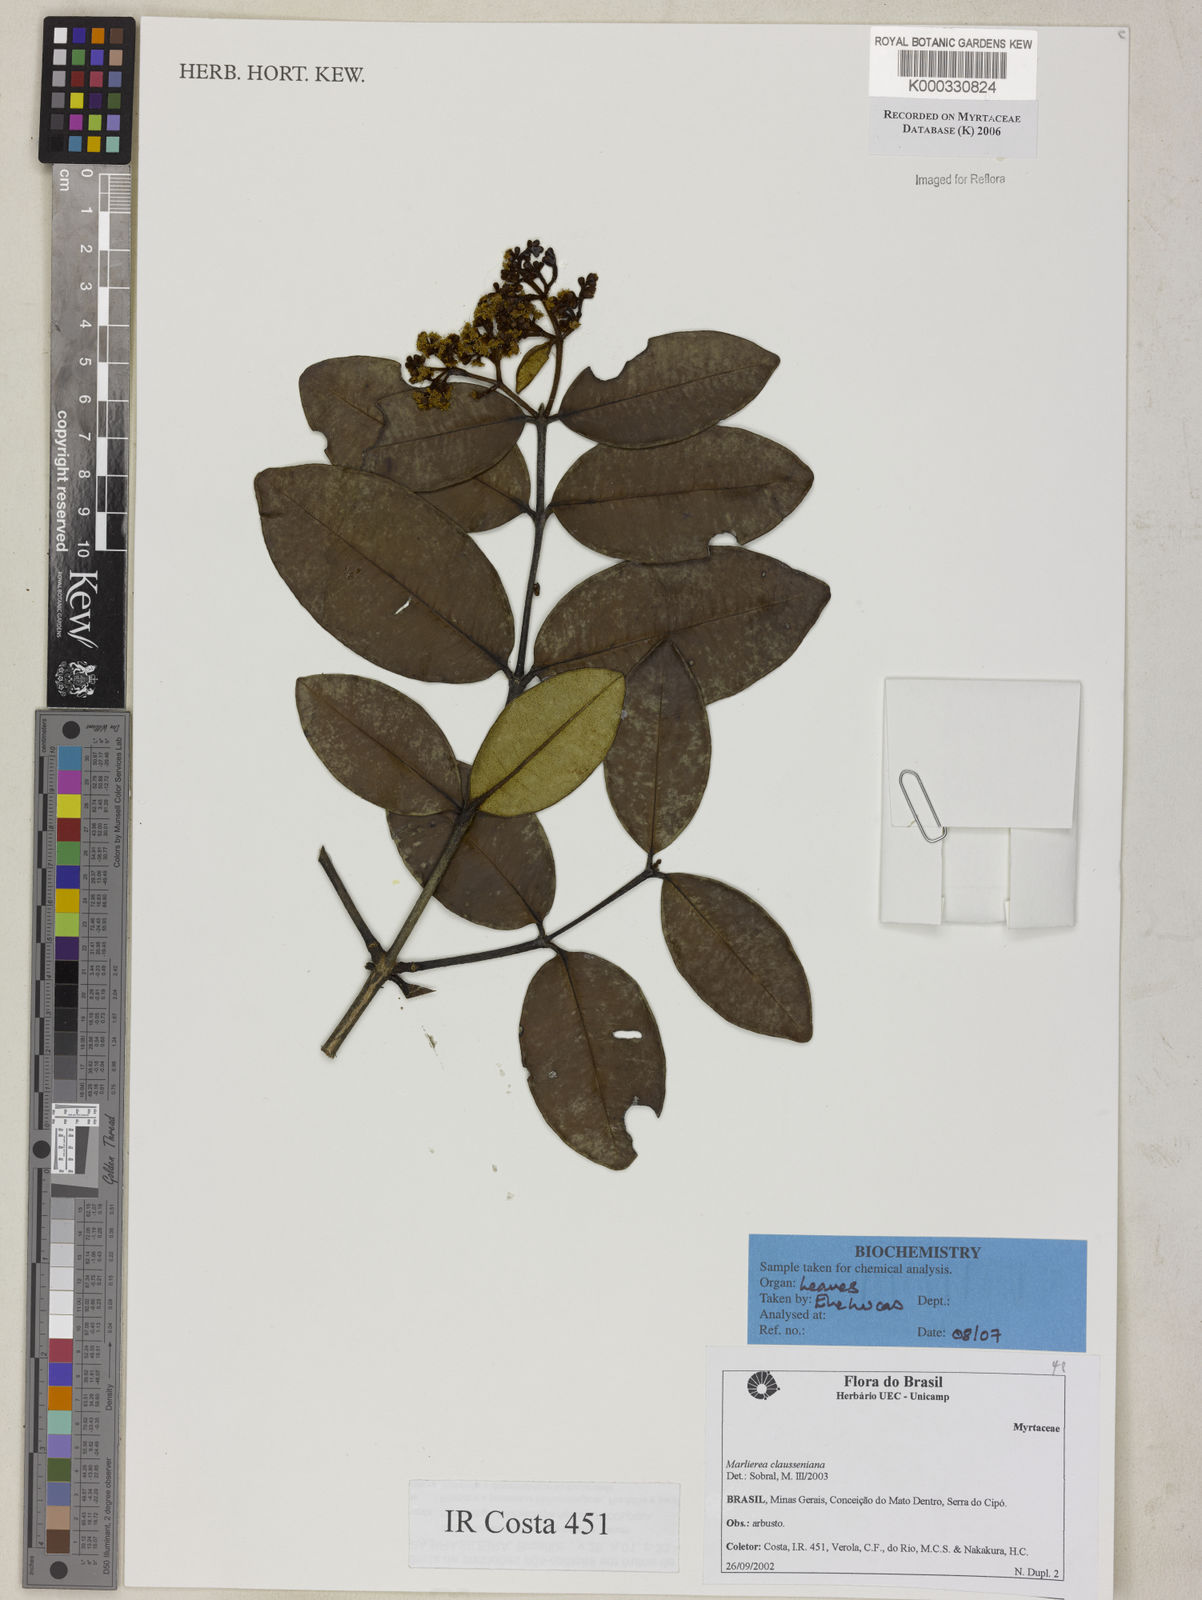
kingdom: Plantae
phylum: Tracheophyta
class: Magnoliopsida
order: Myrtales
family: Myrtaceae
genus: Marlierea
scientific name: Marlierea clausseniana
